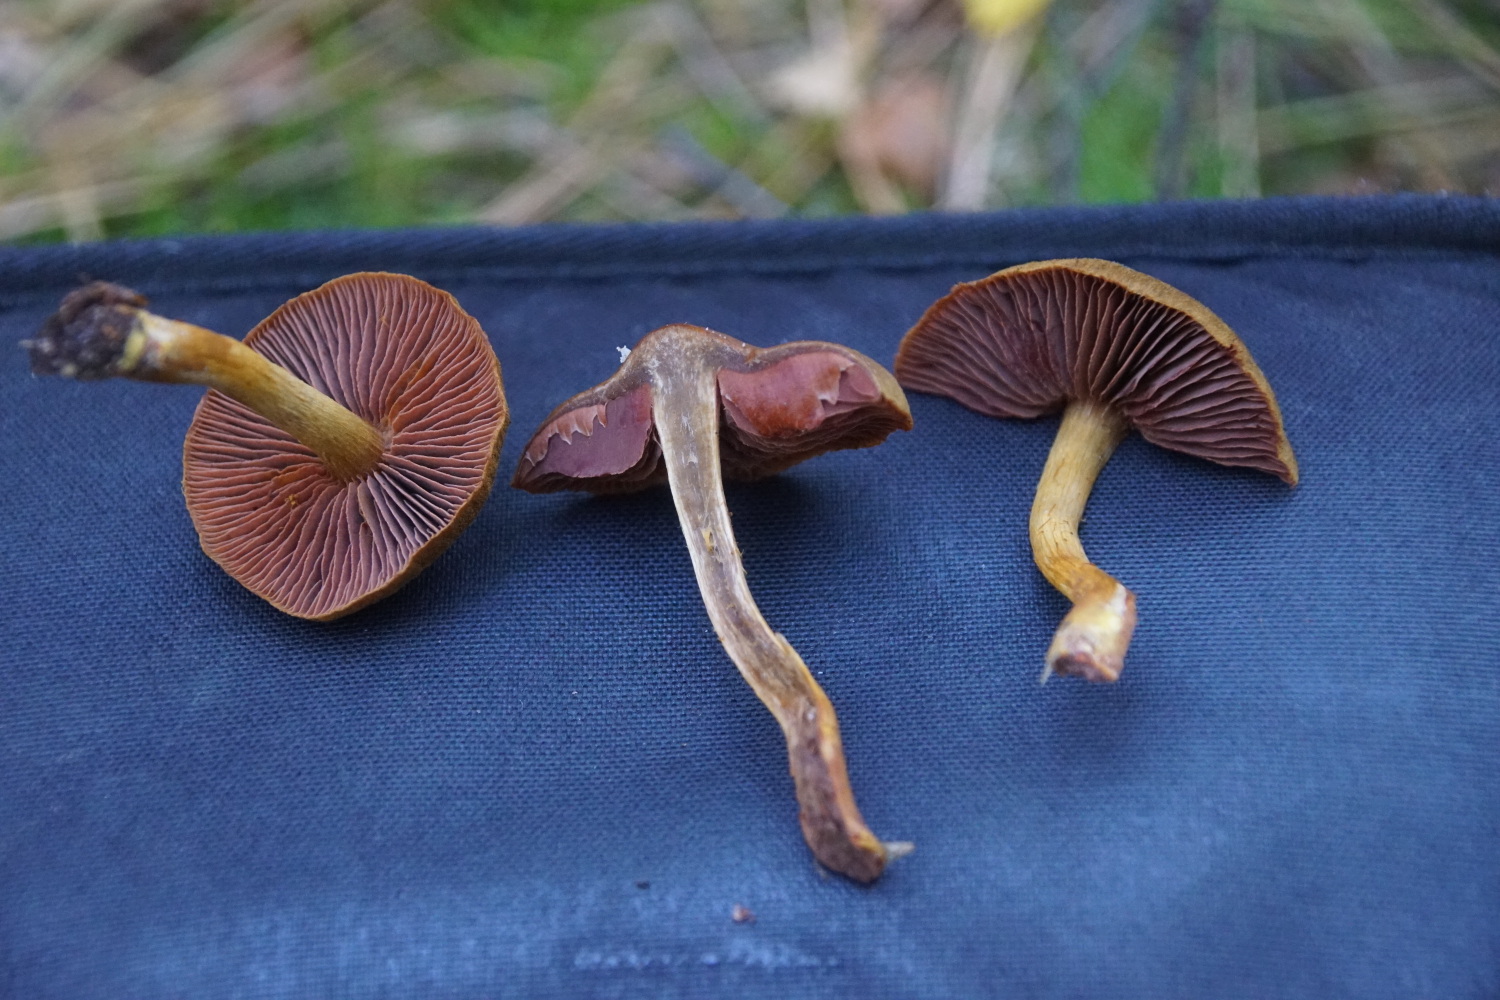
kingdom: Fungi
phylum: Basidiomycota
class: Agaricomycetes
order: Agaricales
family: Cortinariaceae
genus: Cortinarius
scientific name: Cortinarius
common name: cinnoberbladet slørhat
